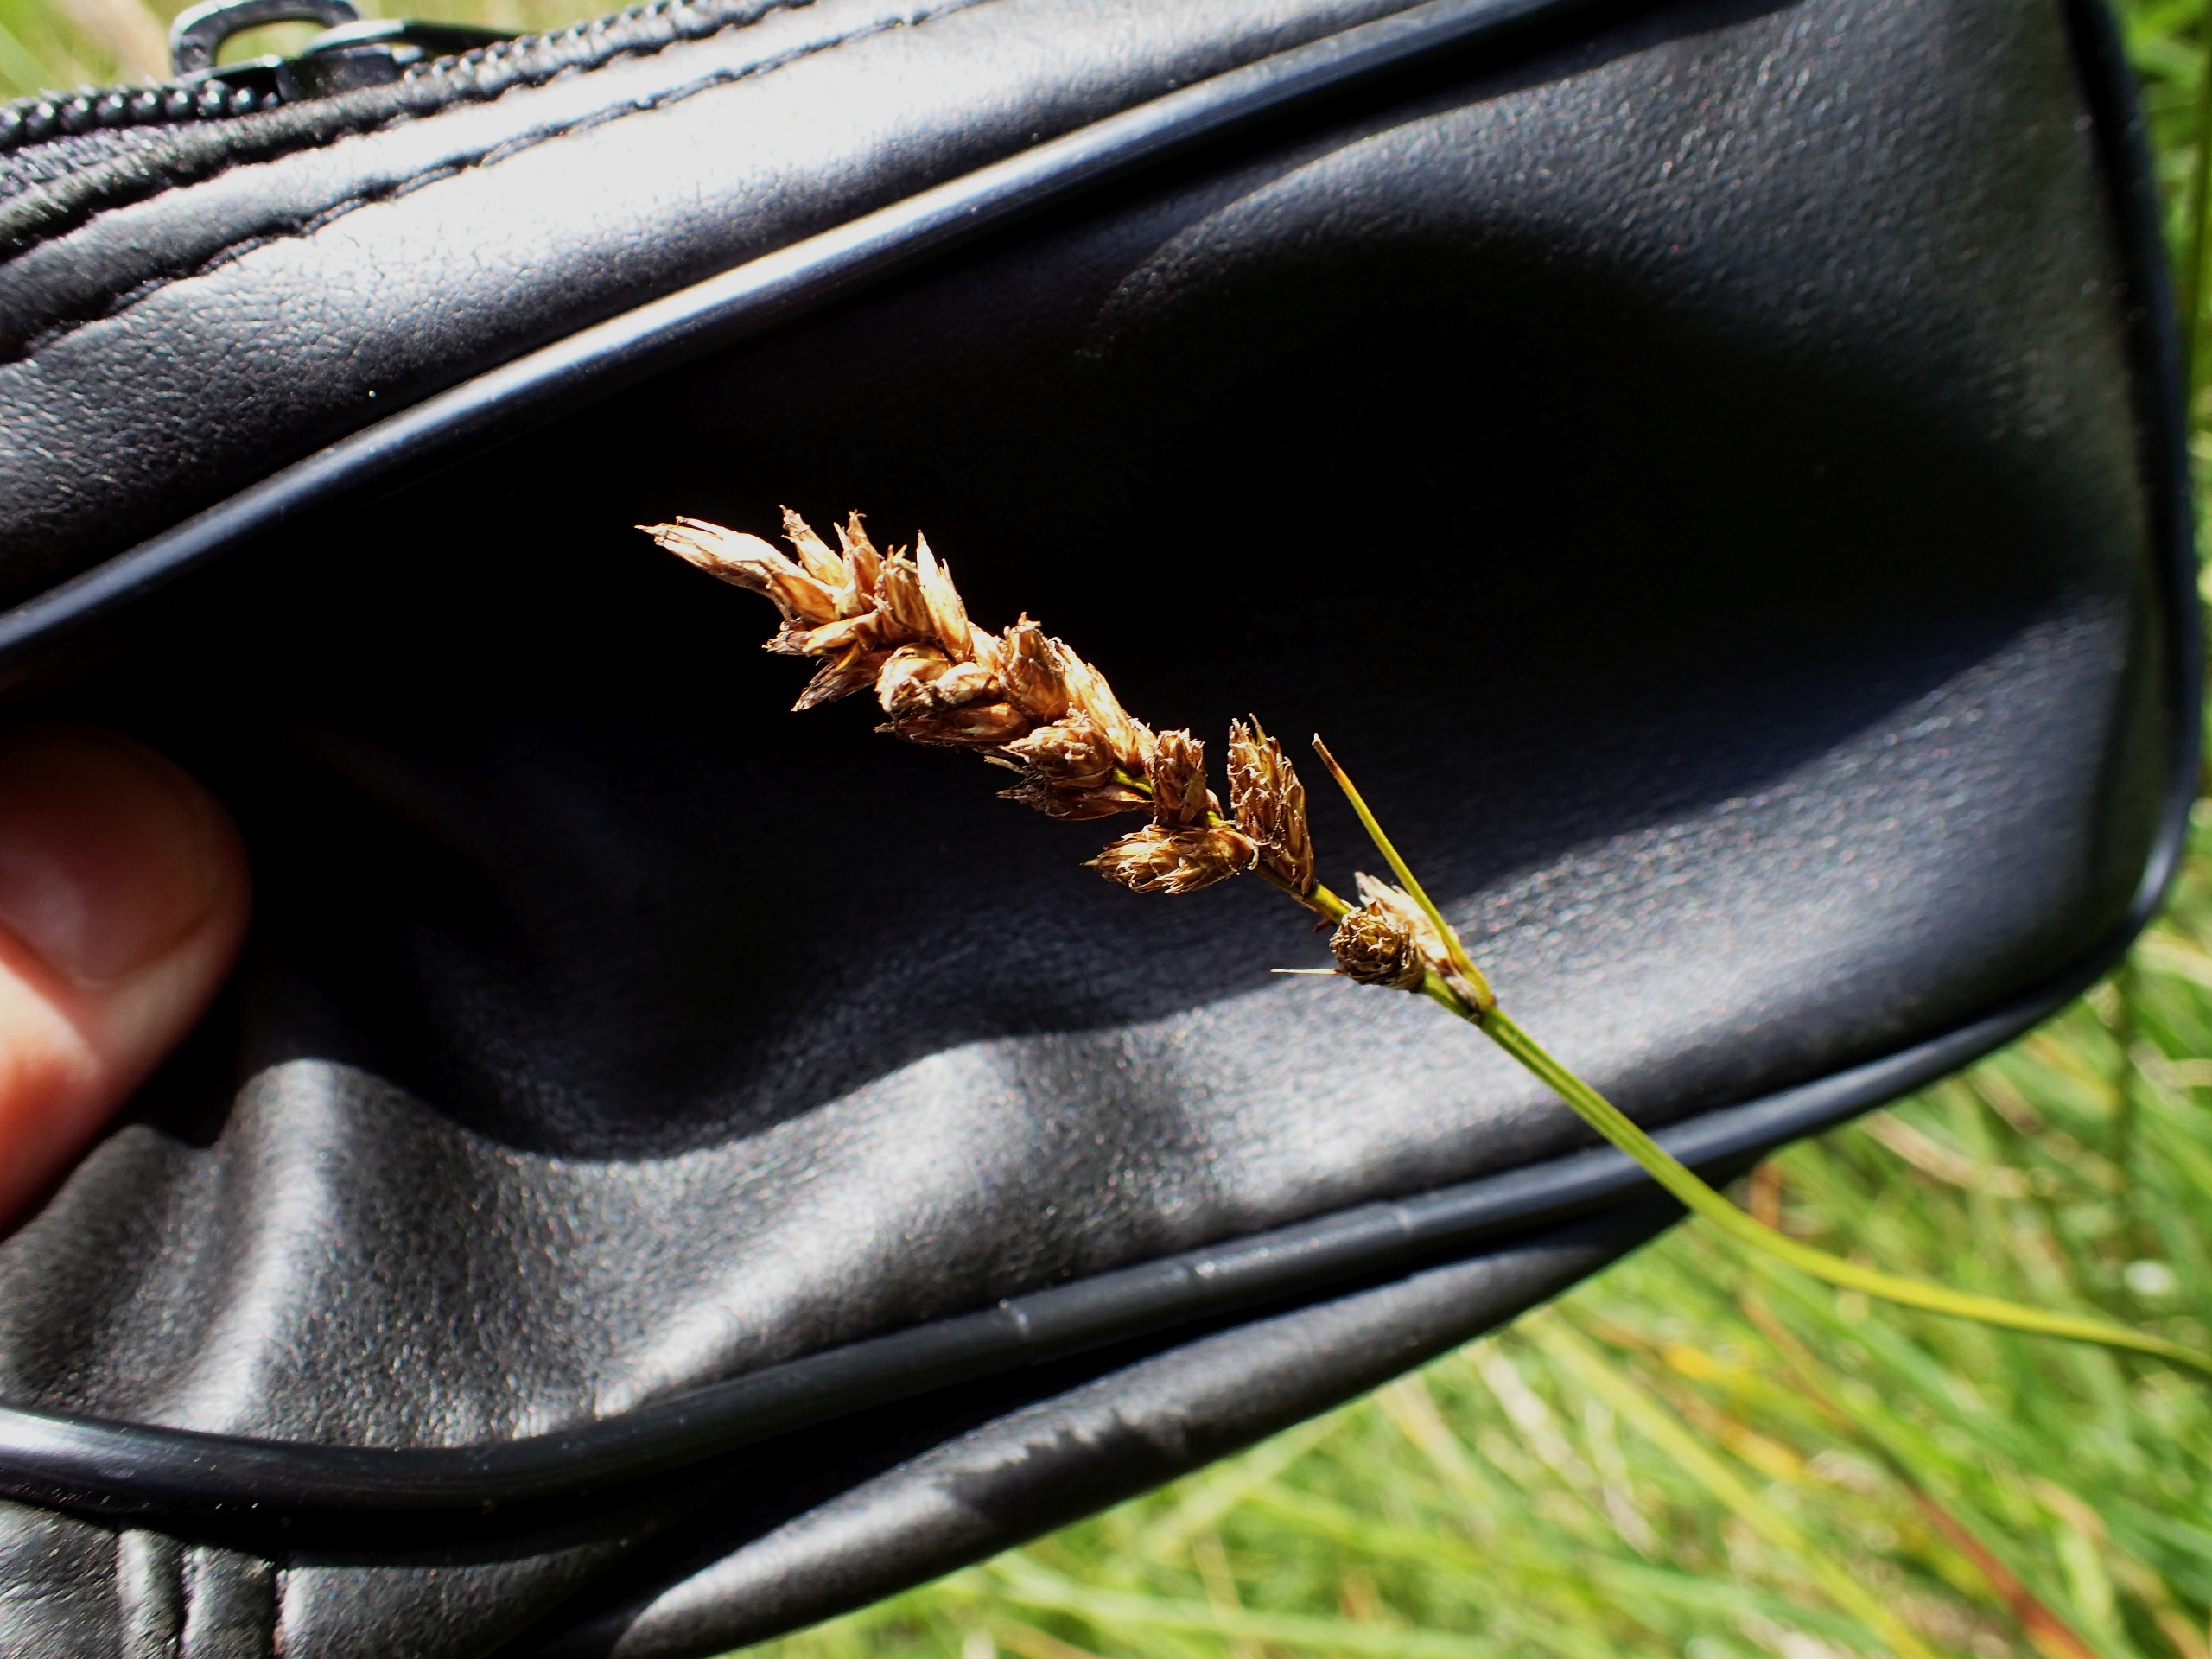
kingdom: Plantae
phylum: Tracheophyta
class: Liliopsida
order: Poales
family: Cyperaceae
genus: Carex
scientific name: Carex disticha
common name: Toradet star
